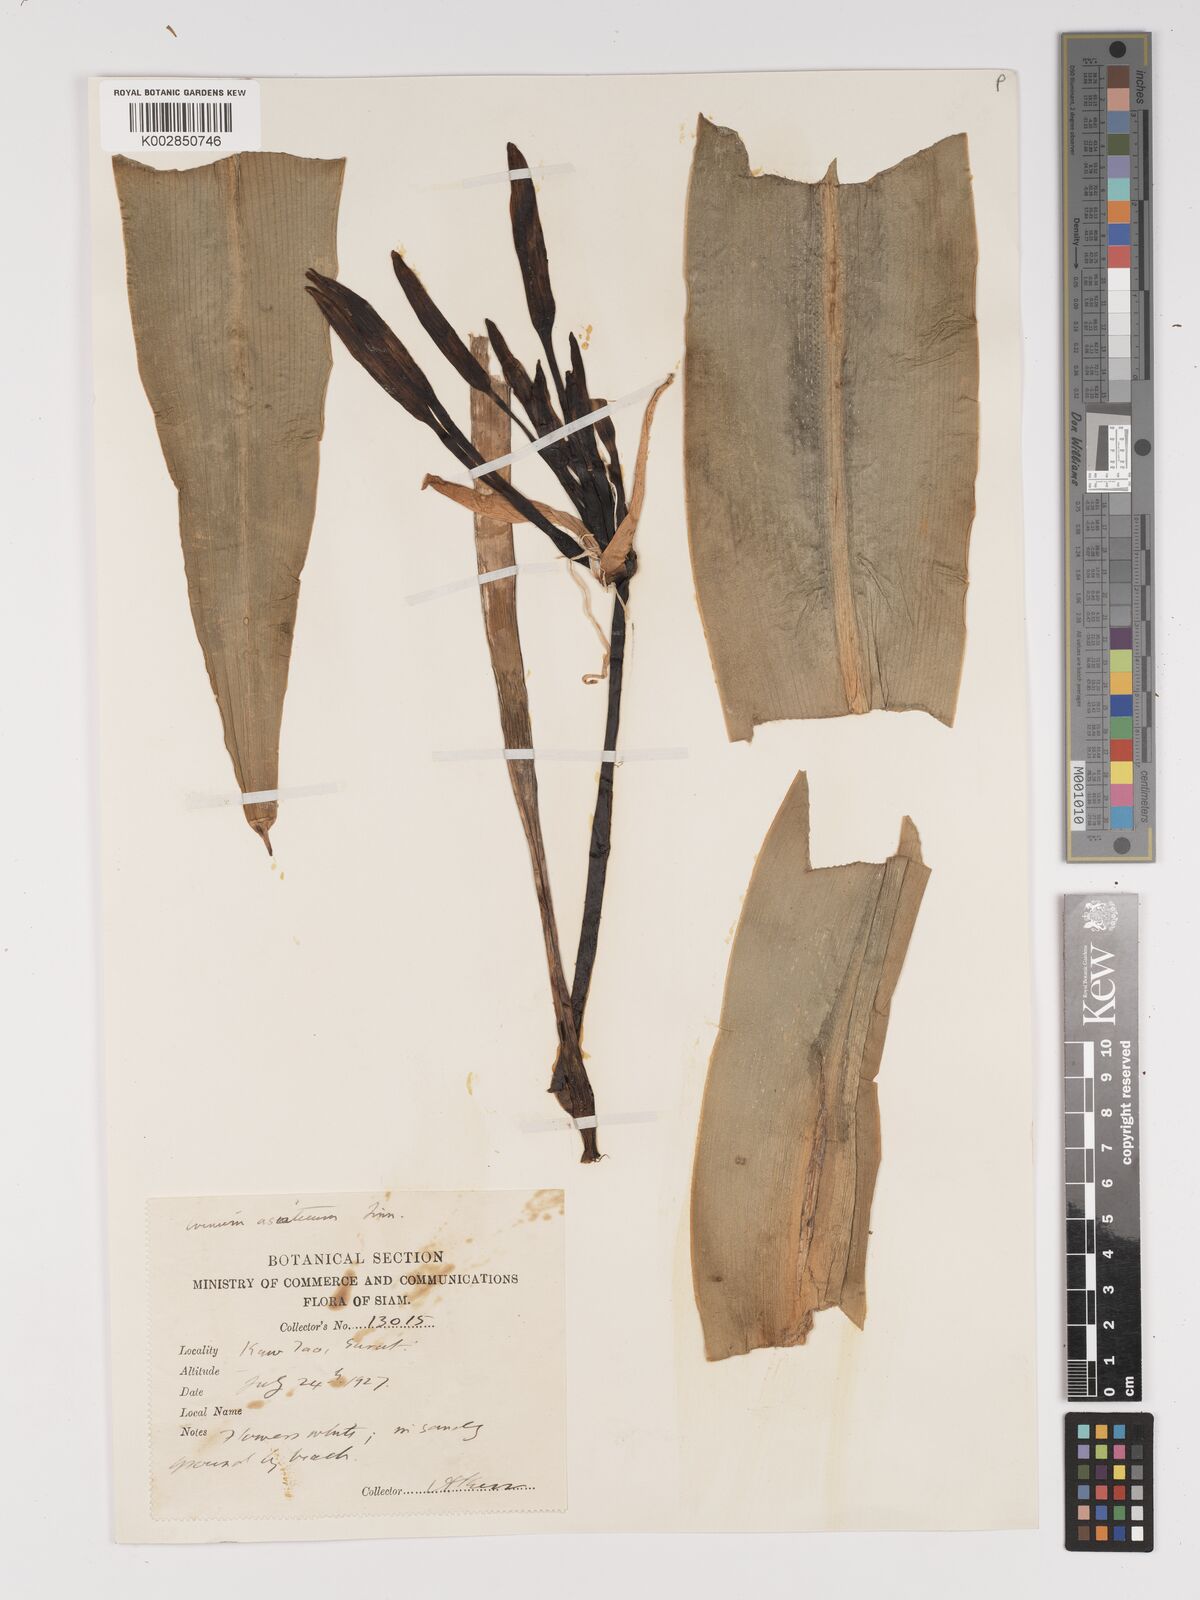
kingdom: Plantae
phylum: Tracheophyta
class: Liliopsida
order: Asparagales
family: Amaryllidaceae
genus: Crinum
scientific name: Crinum asiaticum
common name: Poisonbulb
